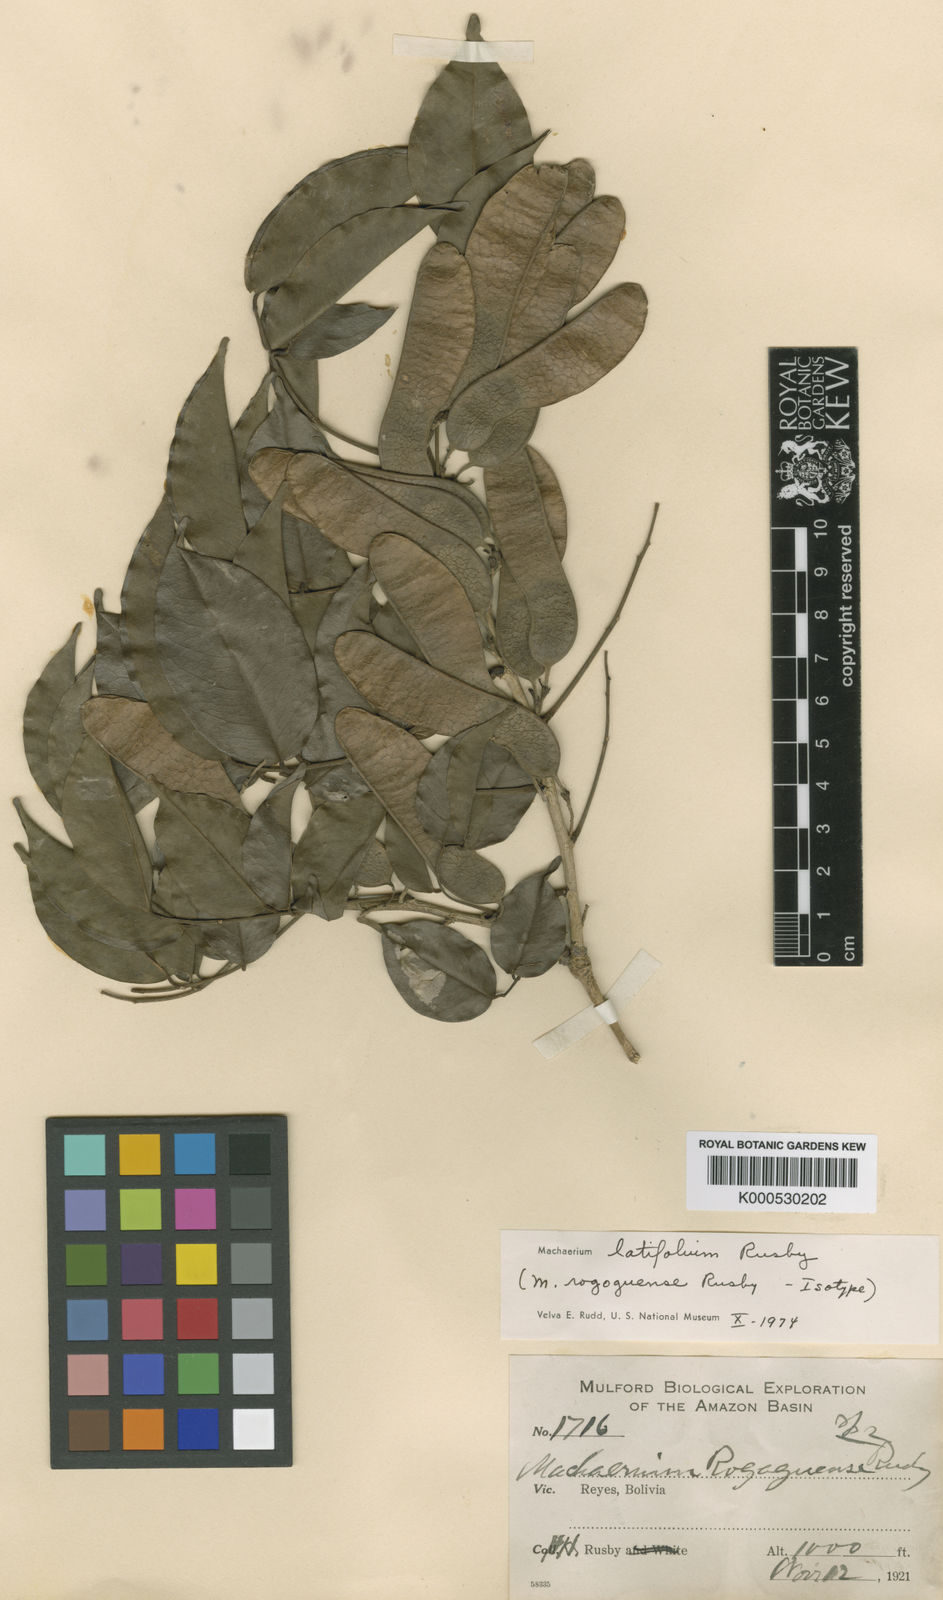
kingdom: Plantae
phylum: Tracheophyta
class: Magnoliopsida
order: Fabales
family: Fabaceae
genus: Machaerium
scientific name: Machaerium latifolium
